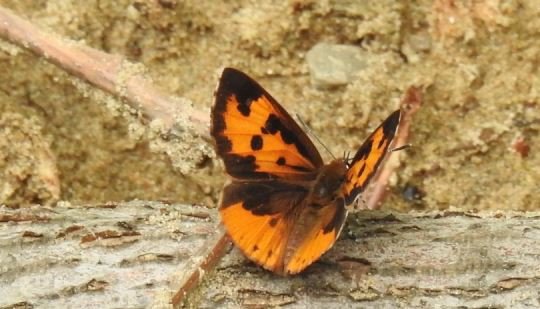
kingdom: Animalia
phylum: Arthropoda
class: Insecta
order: Lepidoptera
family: Lycaenidae
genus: Feniseca
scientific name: Feniseca tarquinius
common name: Harvester
